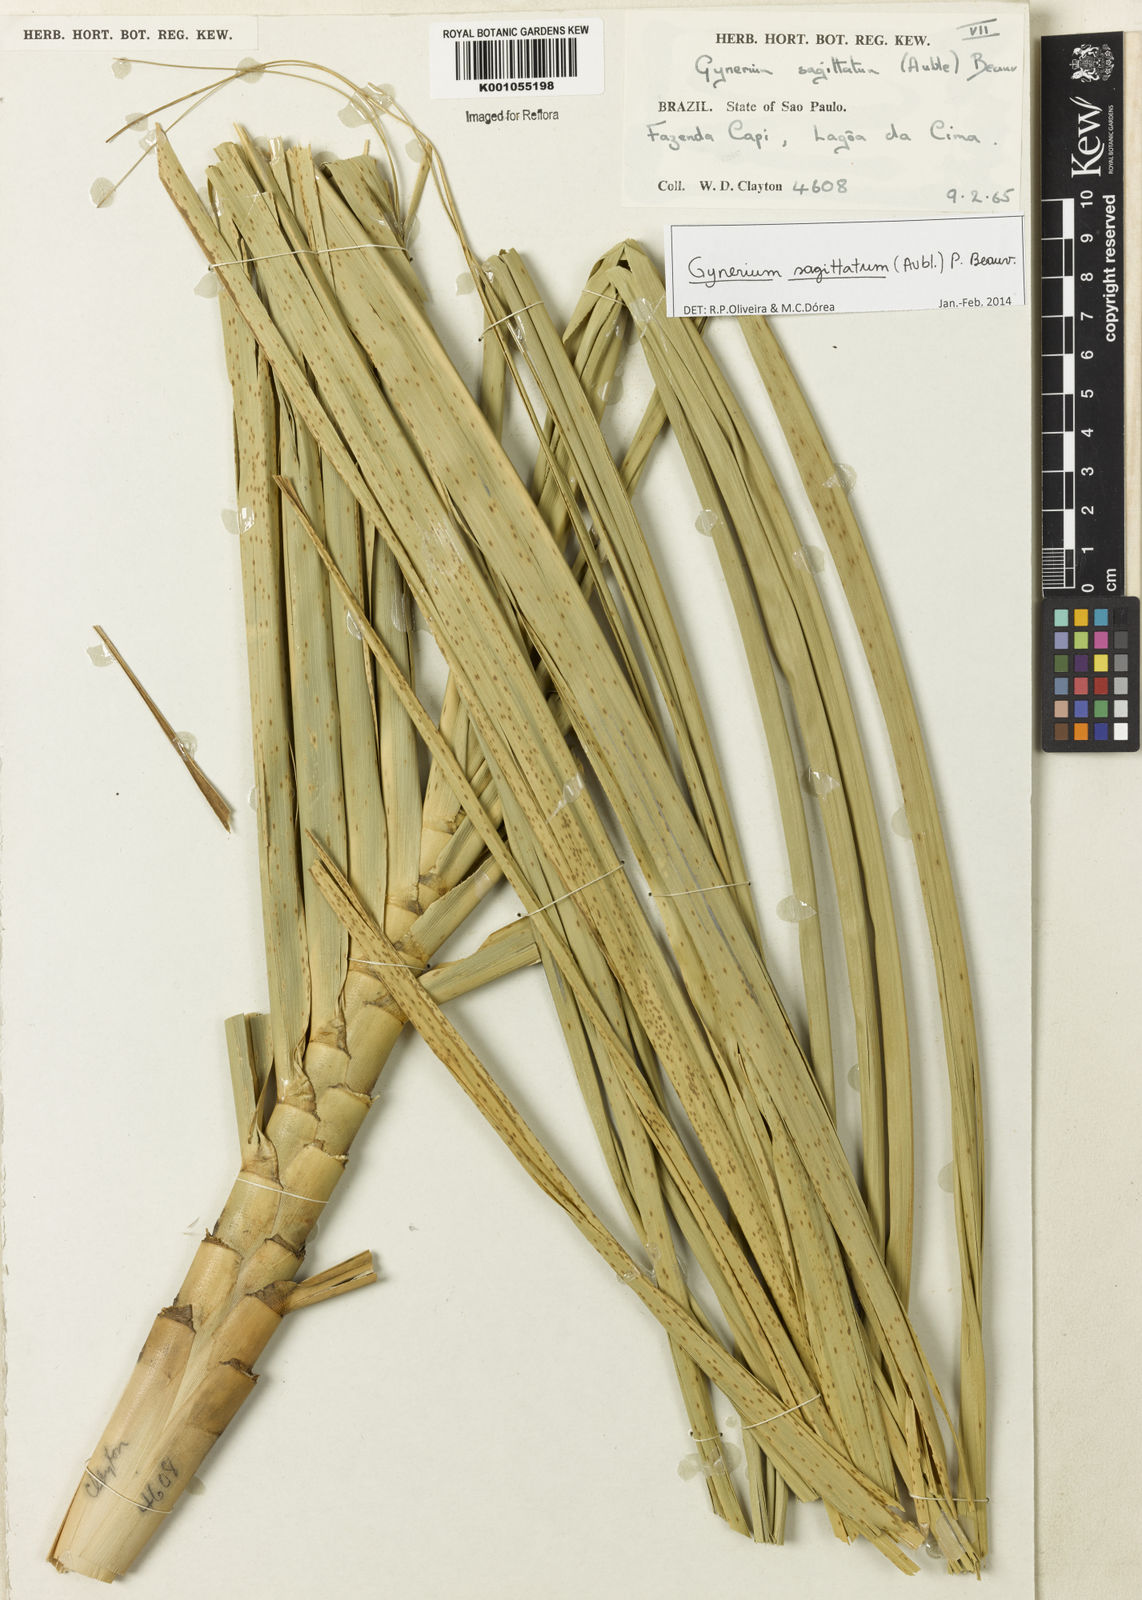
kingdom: Plantae
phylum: Tracheophyta
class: Liliopsida
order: Poales
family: Poaceae
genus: Gynerium
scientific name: Gynerium sagittatum
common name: Wild cane
